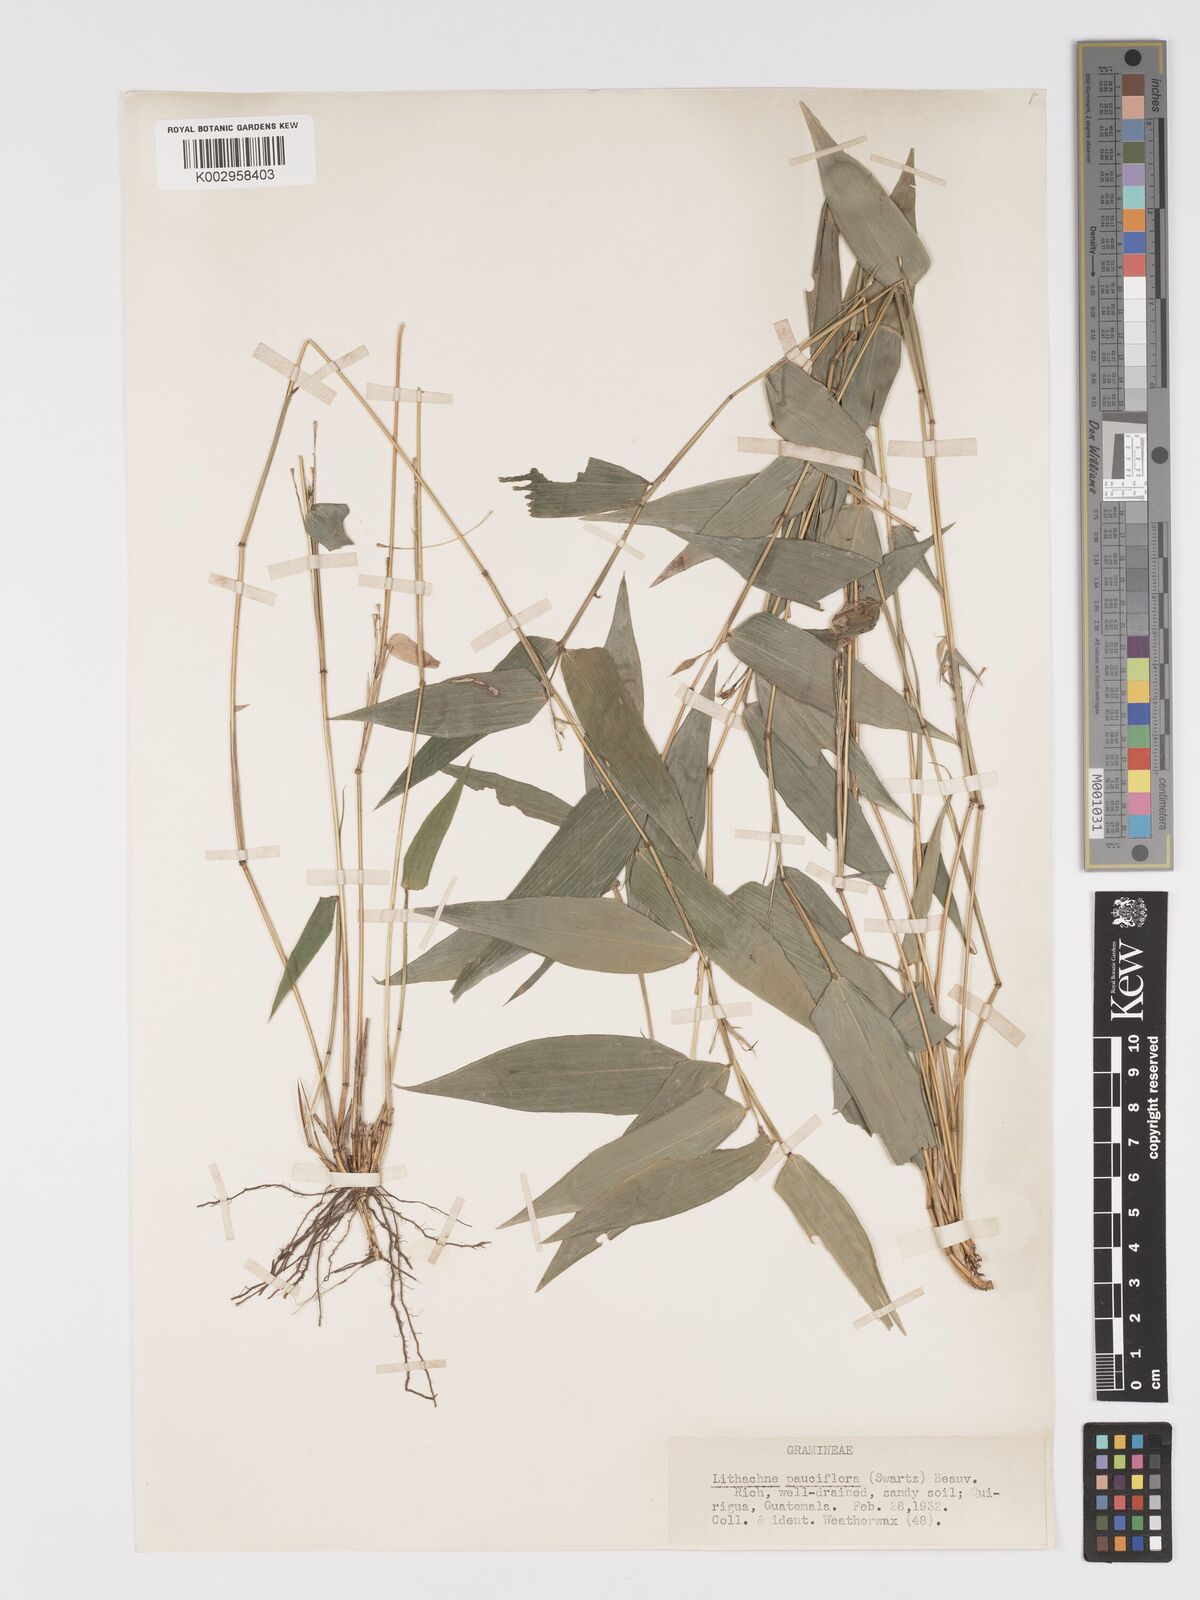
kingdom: Plantae
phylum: Tracheophyta
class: Liliopsida
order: Poales
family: Poaceae
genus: Lithachne
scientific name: Lithachne pauciflora
